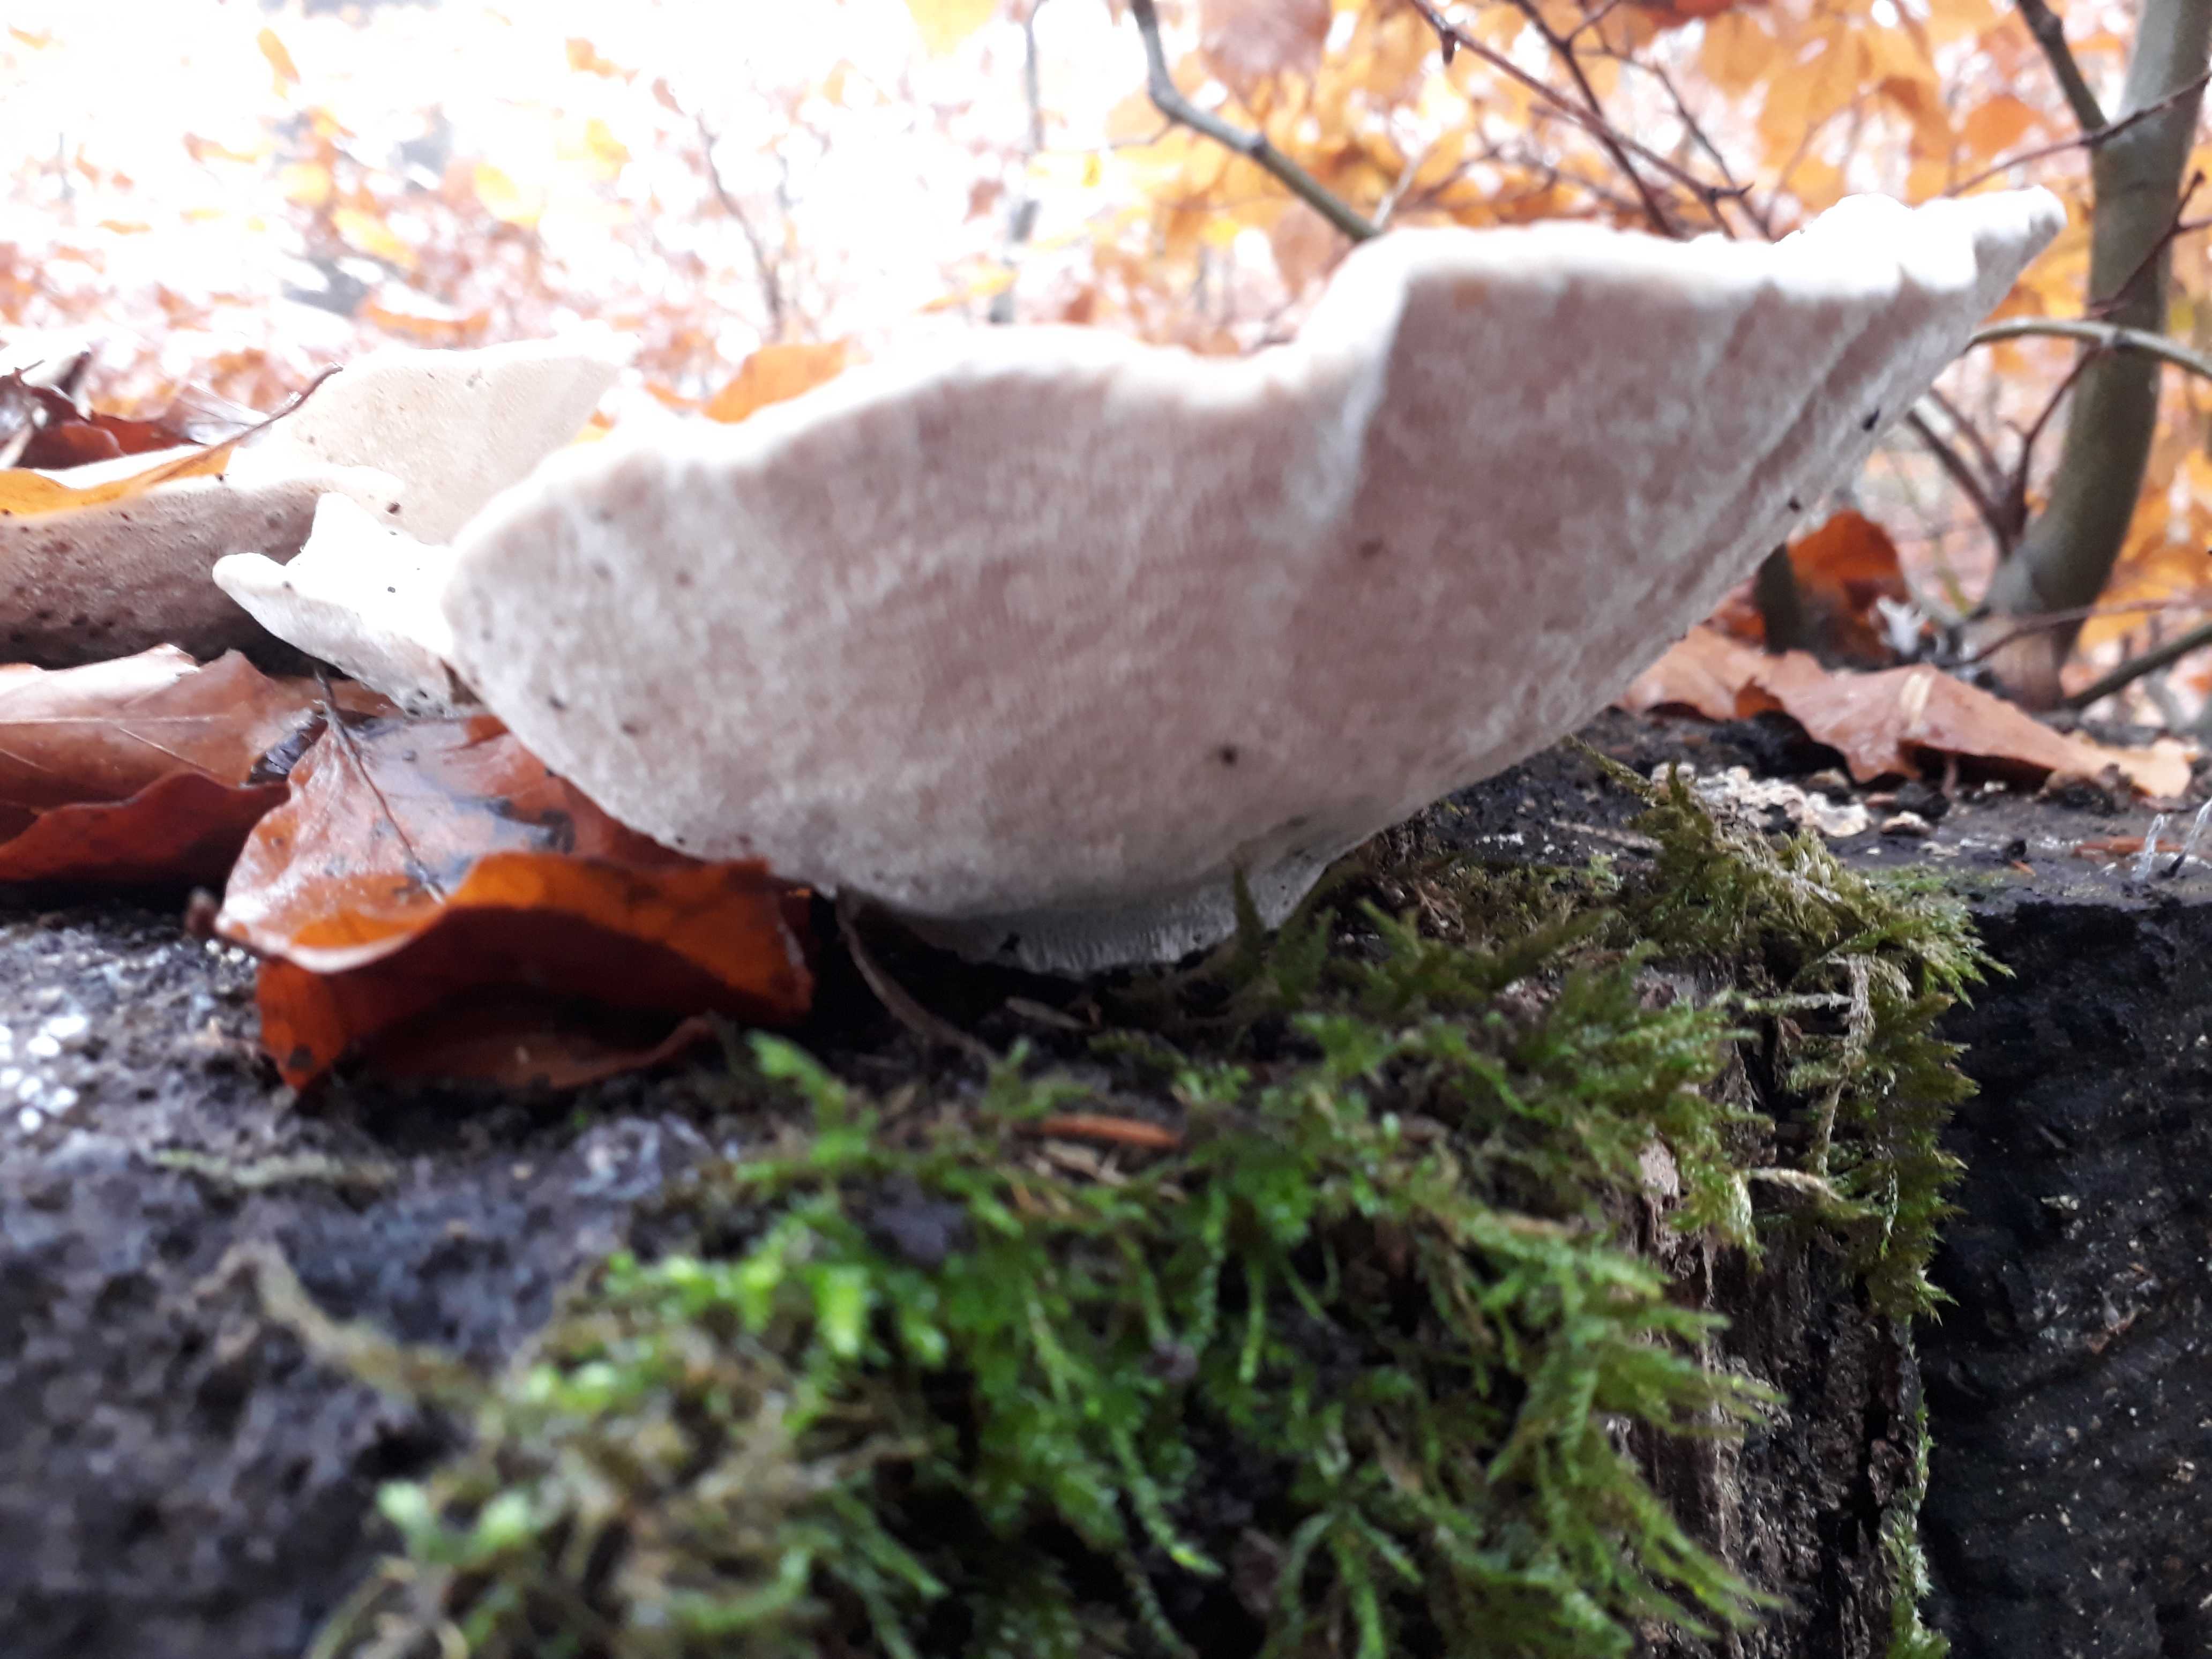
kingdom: Fungi
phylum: Basidiomycota
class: Agaricomycetes
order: Polyporales
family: Polyporaceae
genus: Trametes
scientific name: Trametes gibbosa
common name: puklet læderporesvamp
